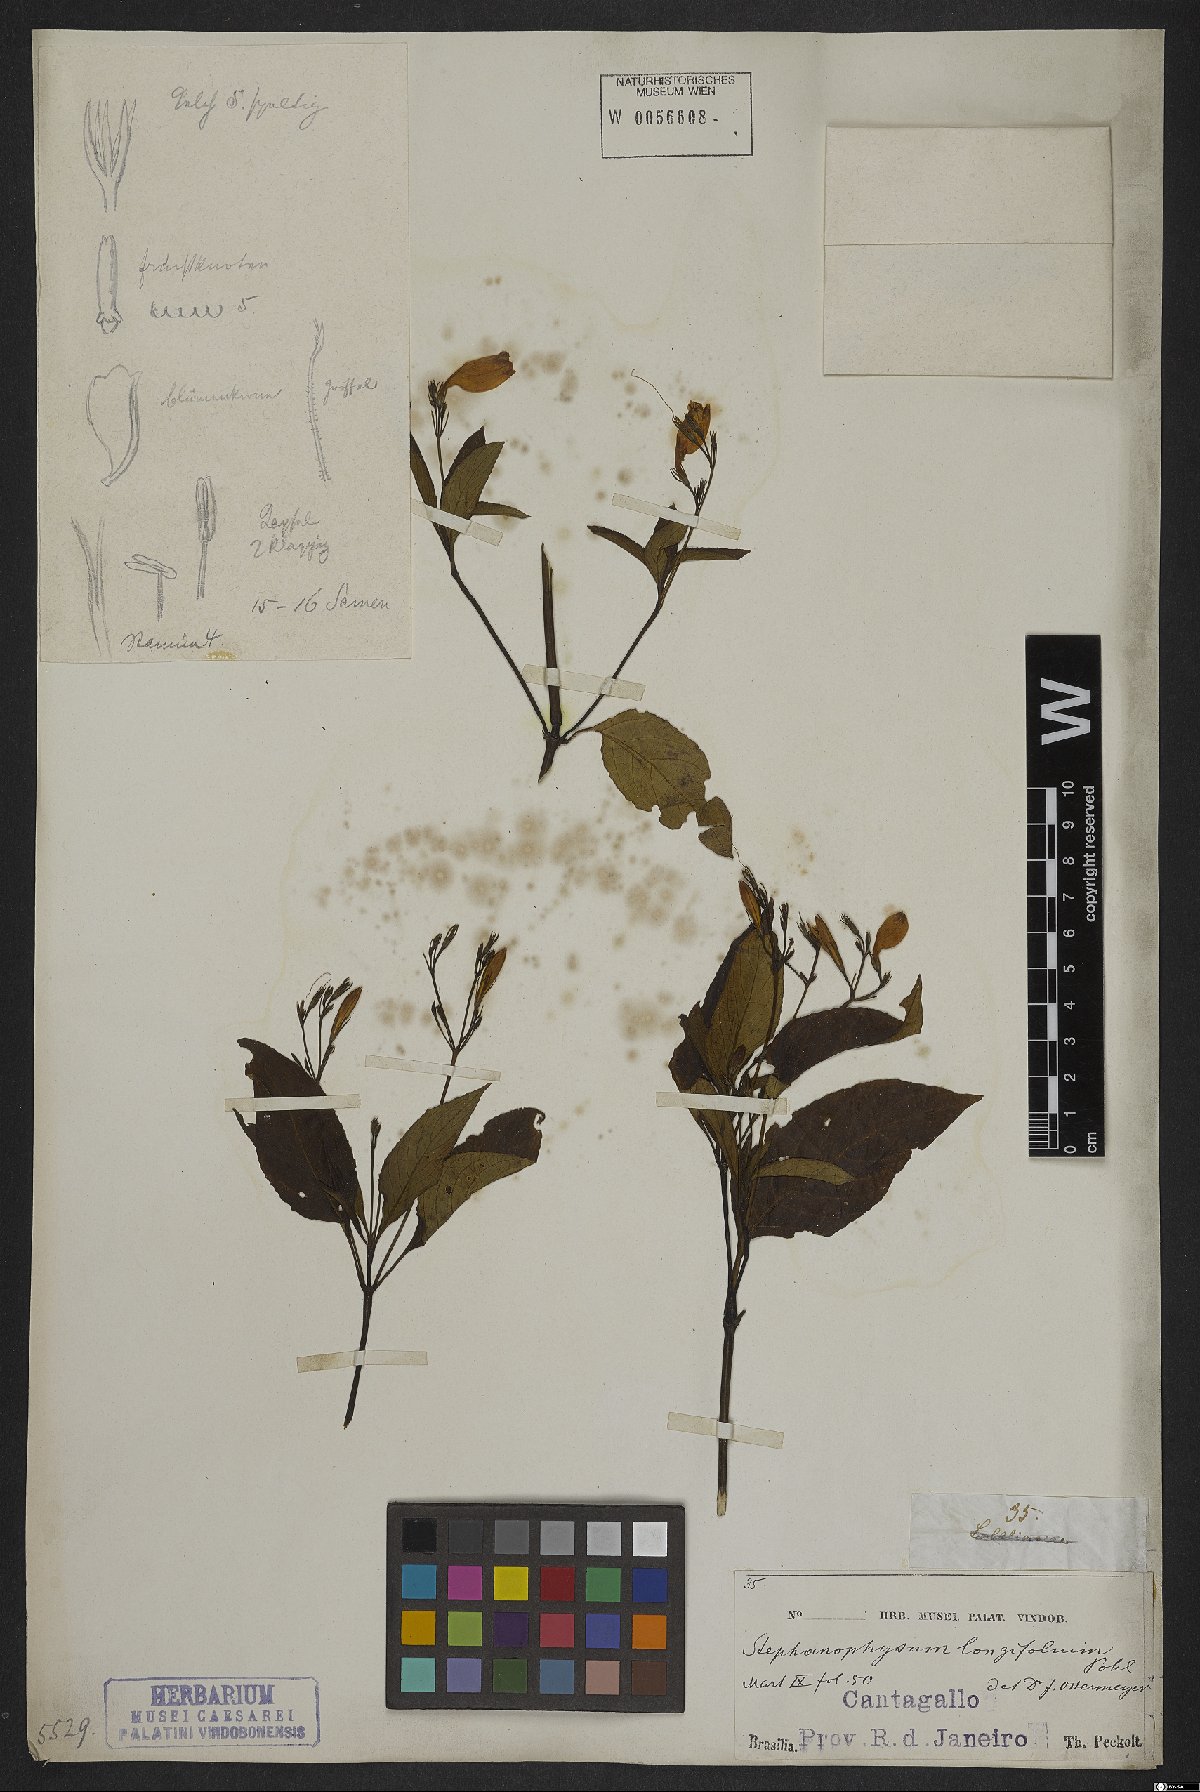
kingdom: Plantae
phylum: Tracheophyta
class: Magnoliopsida
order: Lamiales
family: Acanthaceae
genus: Ruellia
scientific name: Ruellia serrana
